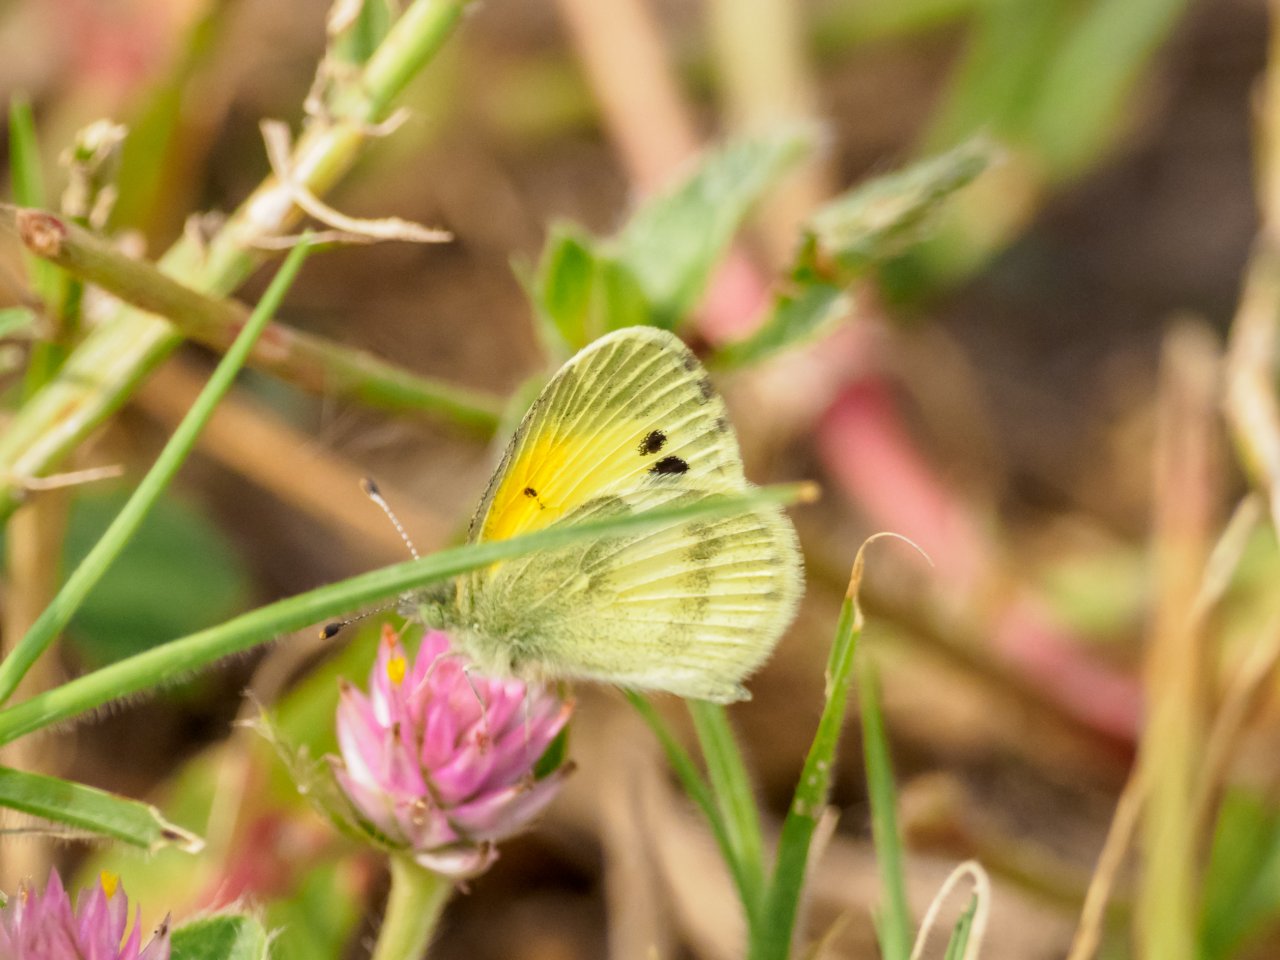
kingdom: Animalia
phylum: Arthropoda
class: Insecta
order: Lepidoptera
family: Pieridae
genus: Nathalis
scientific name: Nathalis iole
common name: Dainty Sulphur
